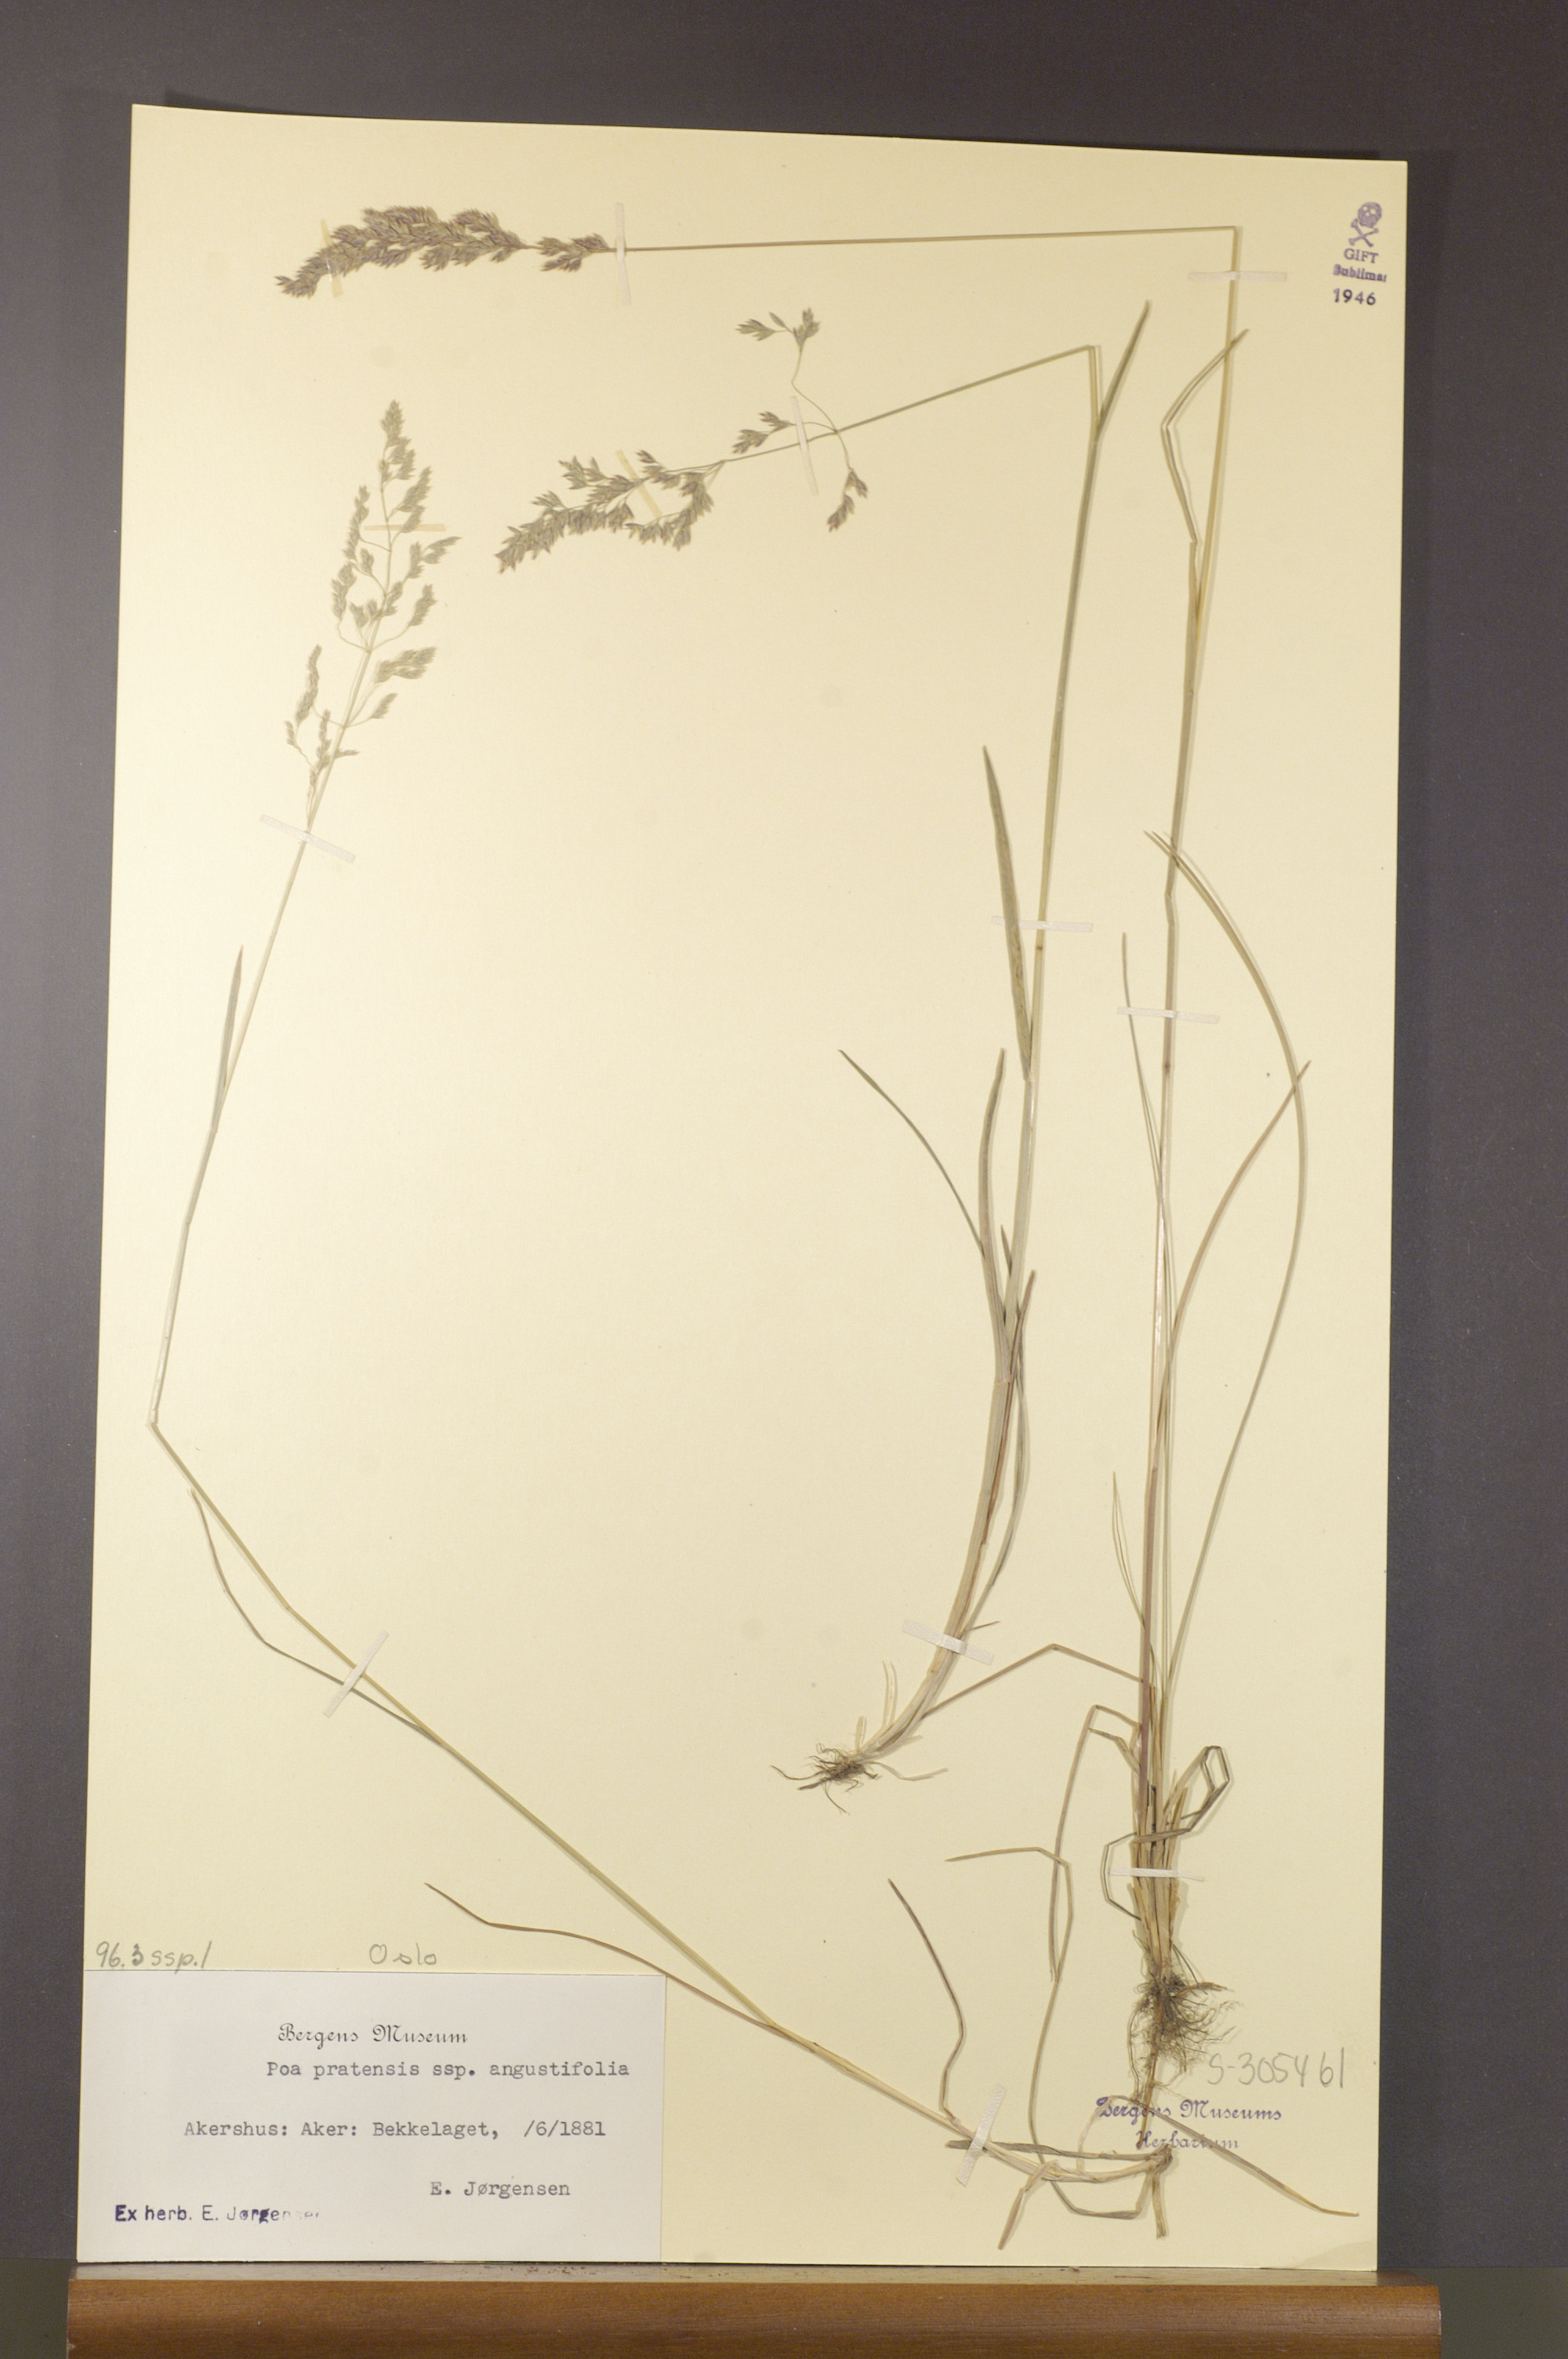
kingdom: Plantae
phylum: Tracheophyta
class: Liliopsida
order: Poales
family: Poaceae
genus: Poa
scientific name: Poa angustifolia
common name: Narrow-leaved meadow-grass
